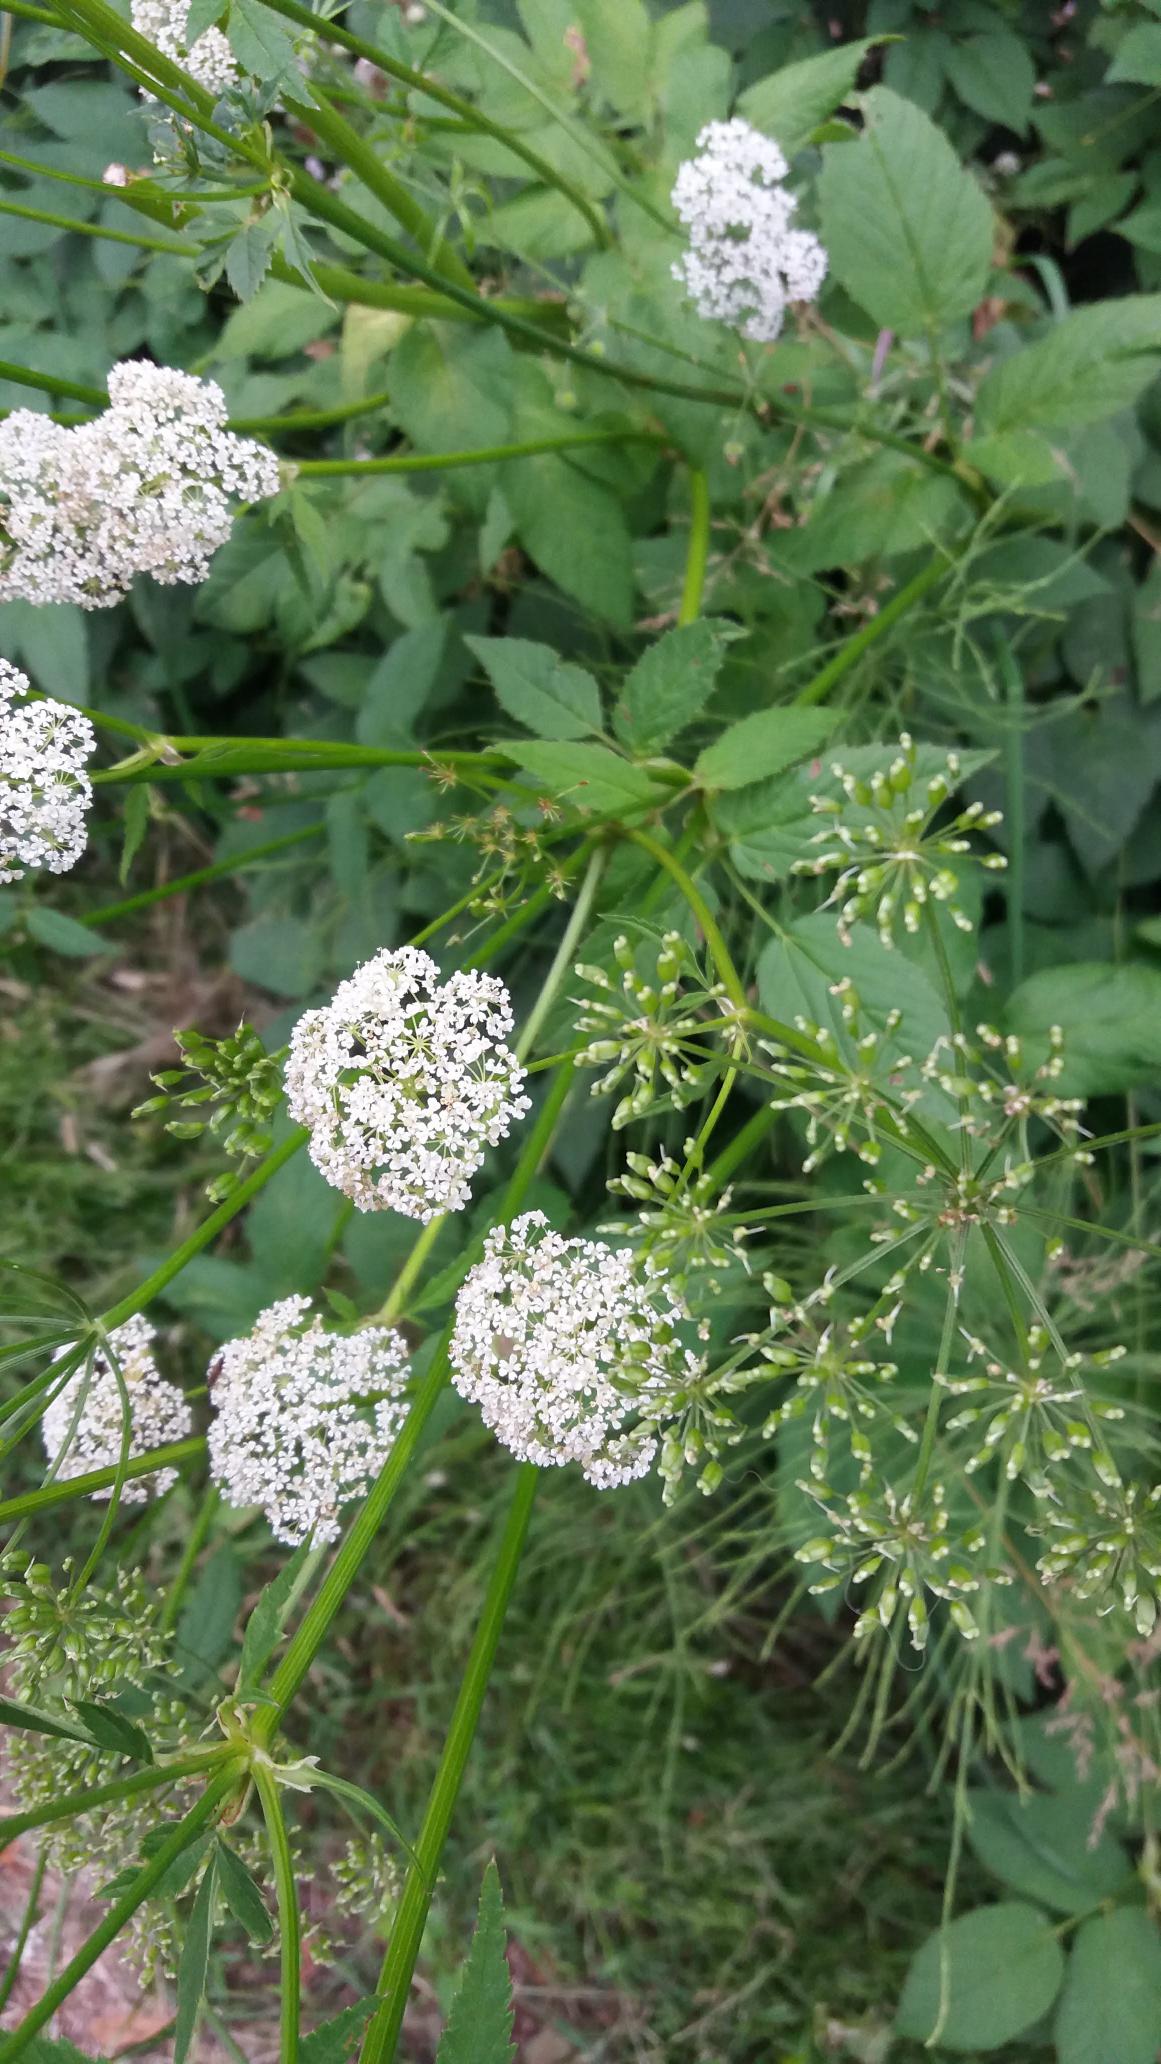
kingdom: Plantae
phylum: Tracheophyta
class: Magnoliopsida
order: Apiales
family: Apiaceae
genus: Aegopodium
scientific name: Aegopodium podagraria
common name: Skvalderkål
